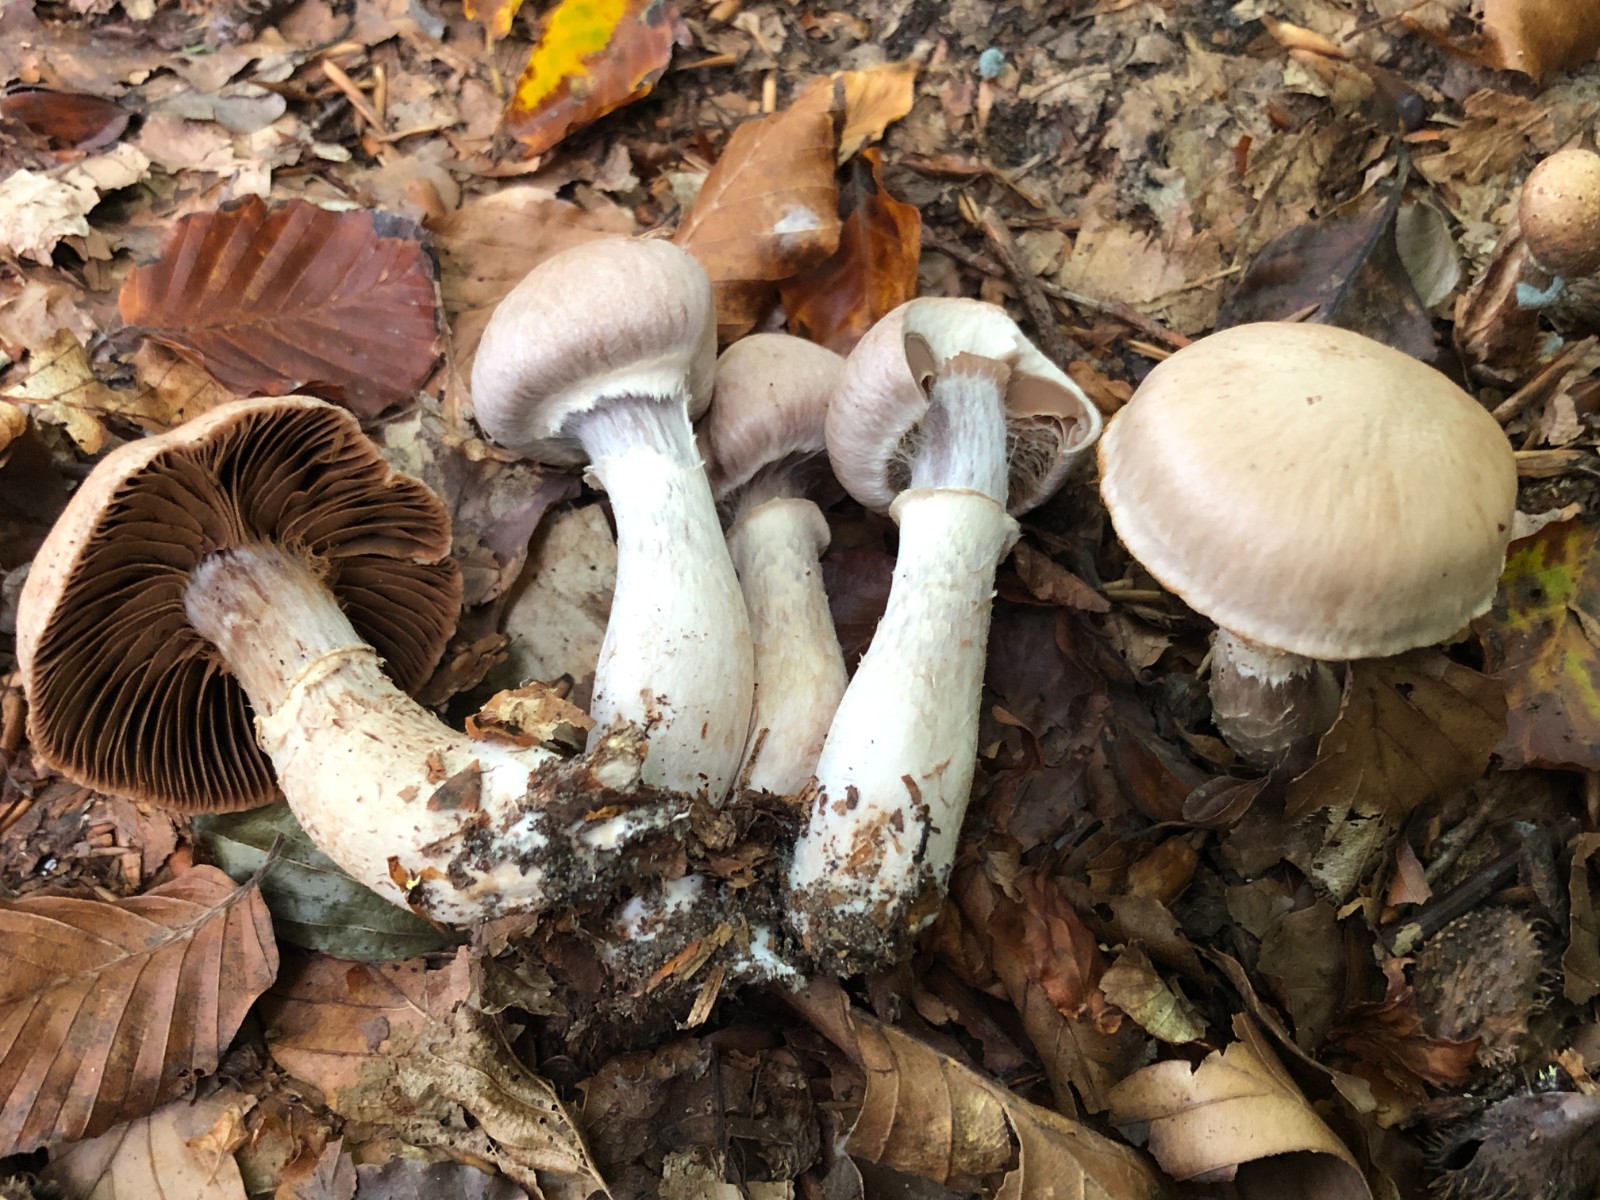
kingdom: Fungi
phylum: Basidiomycota
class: Agaricomycetes
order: Agaricales
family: Cortinariaceae
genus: Cortinarius
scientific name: Cortinarius torvus
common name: champignonagtig slørhat
